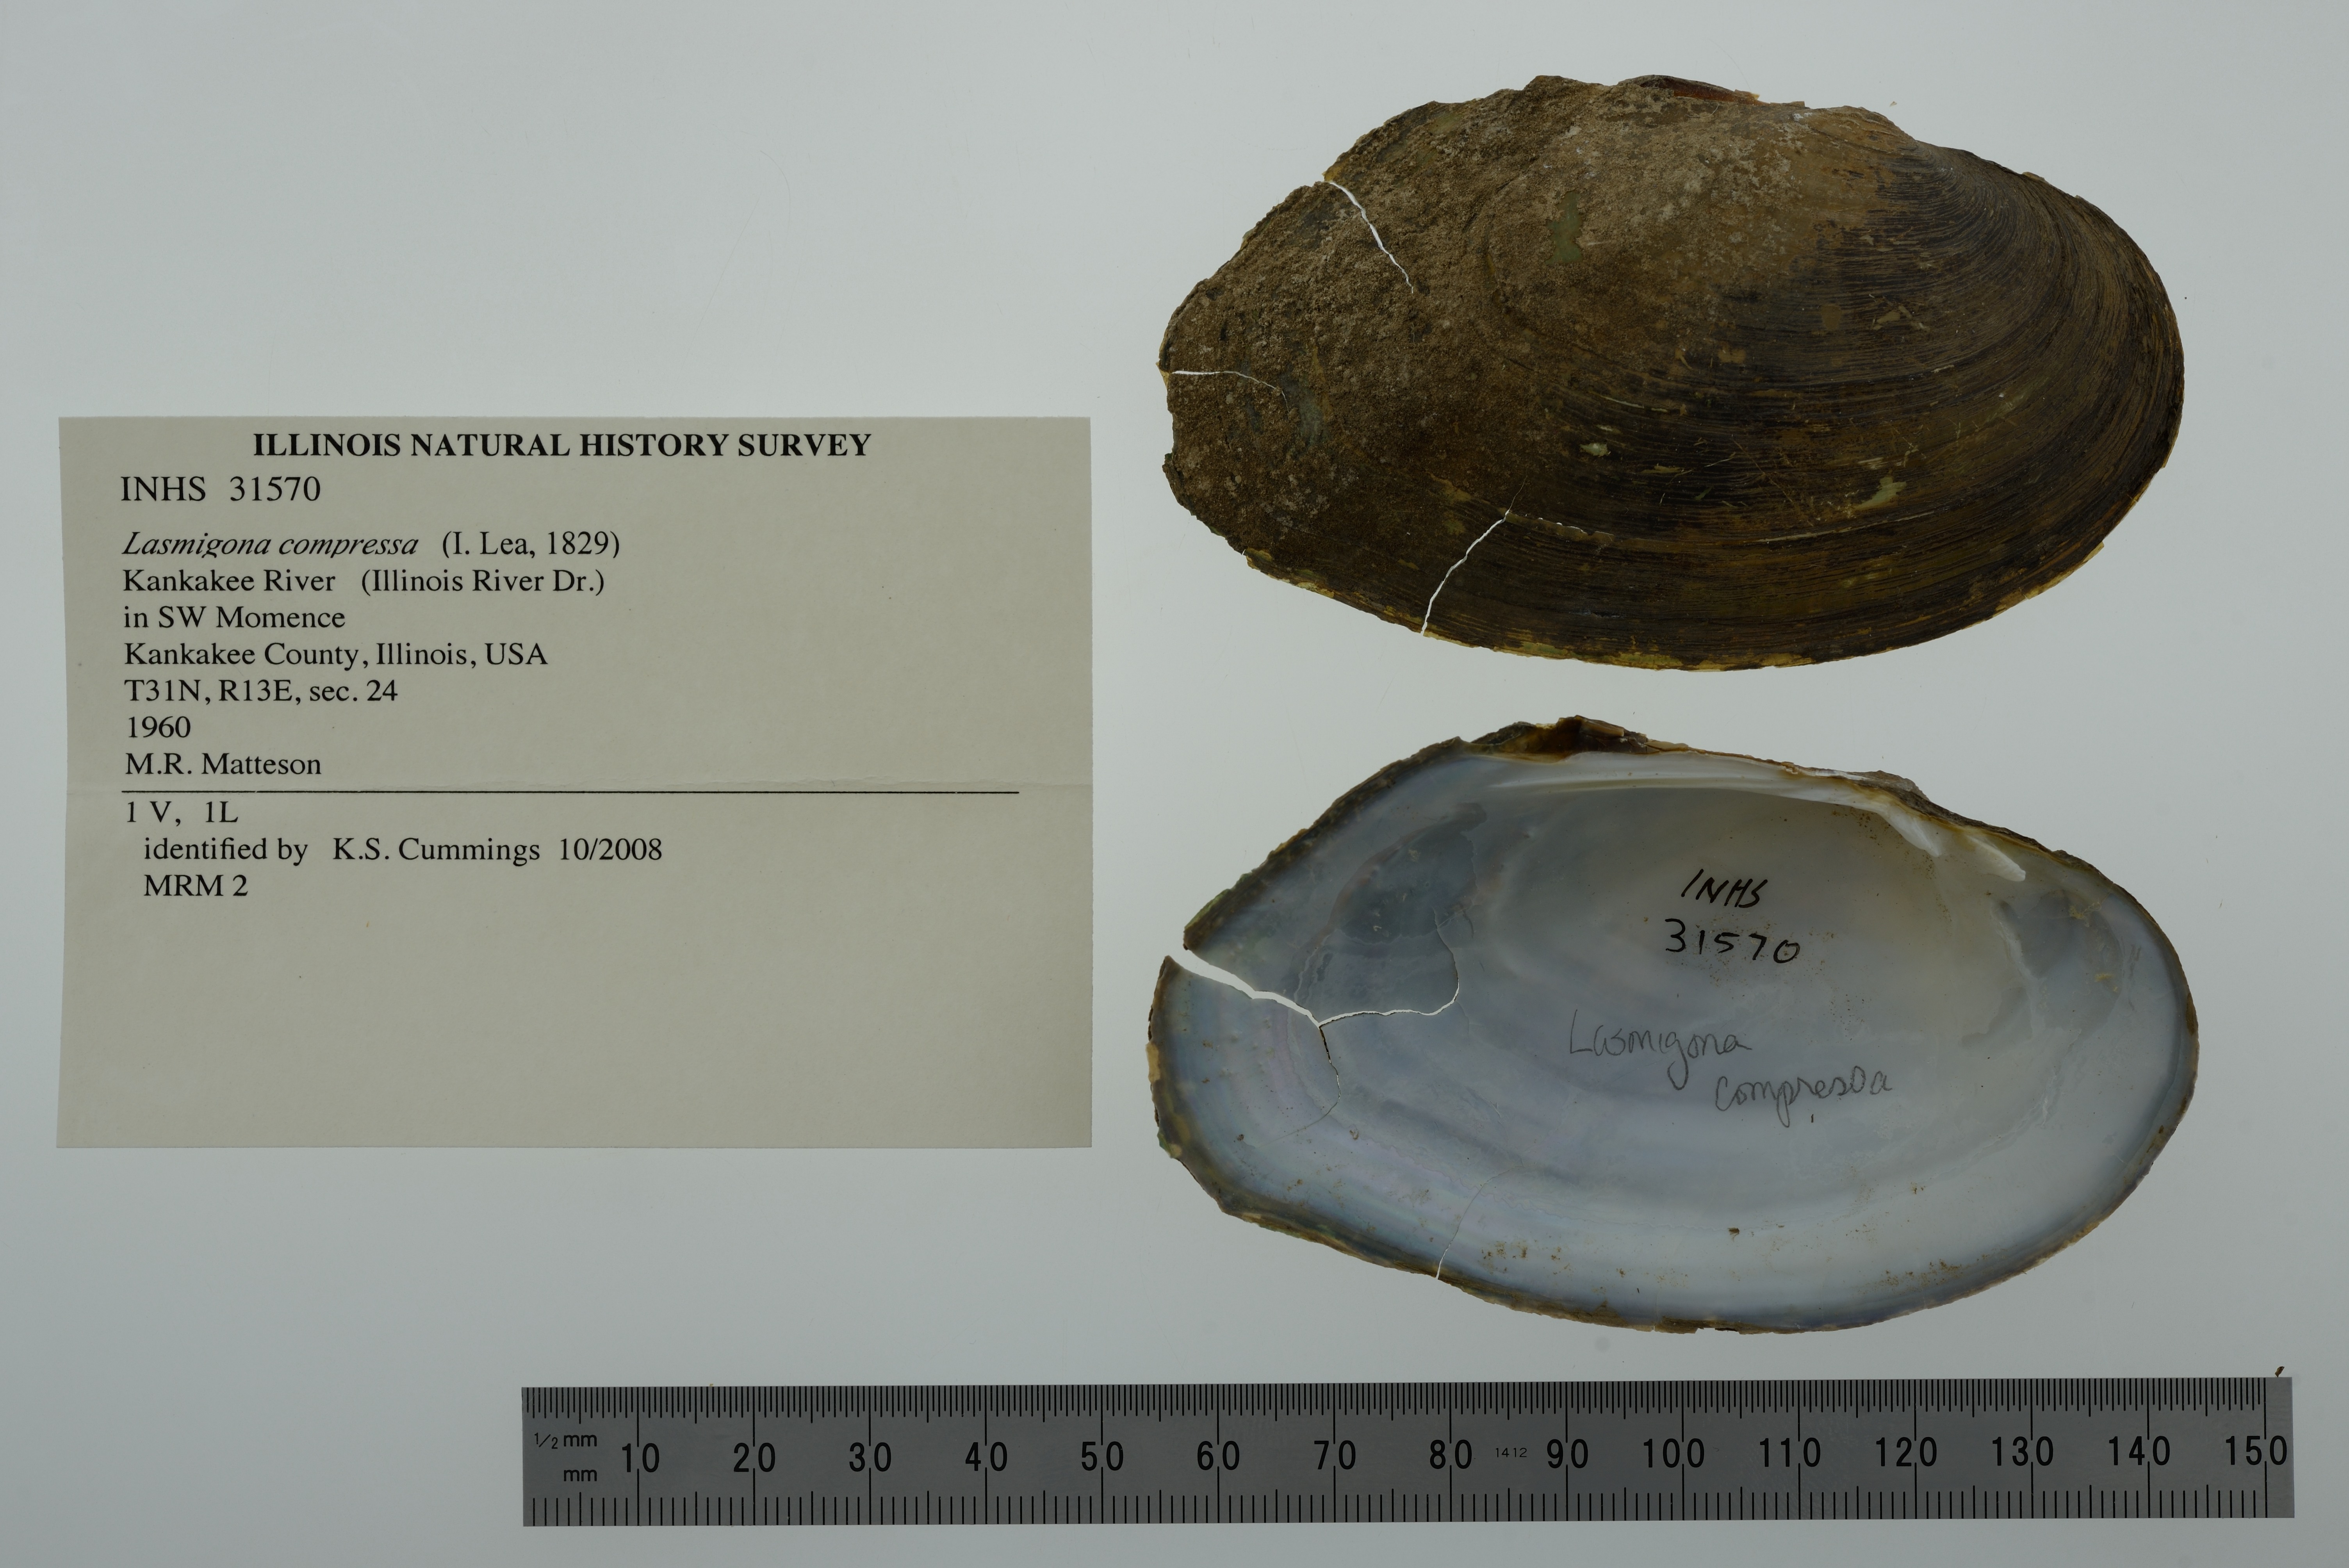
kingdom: Animalia
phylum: Mollusca
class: Bivalvia
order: Unionida
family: Unionidae
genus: Lasmigona
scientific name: Lasmigona compressa
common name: Creek heelsplitter
